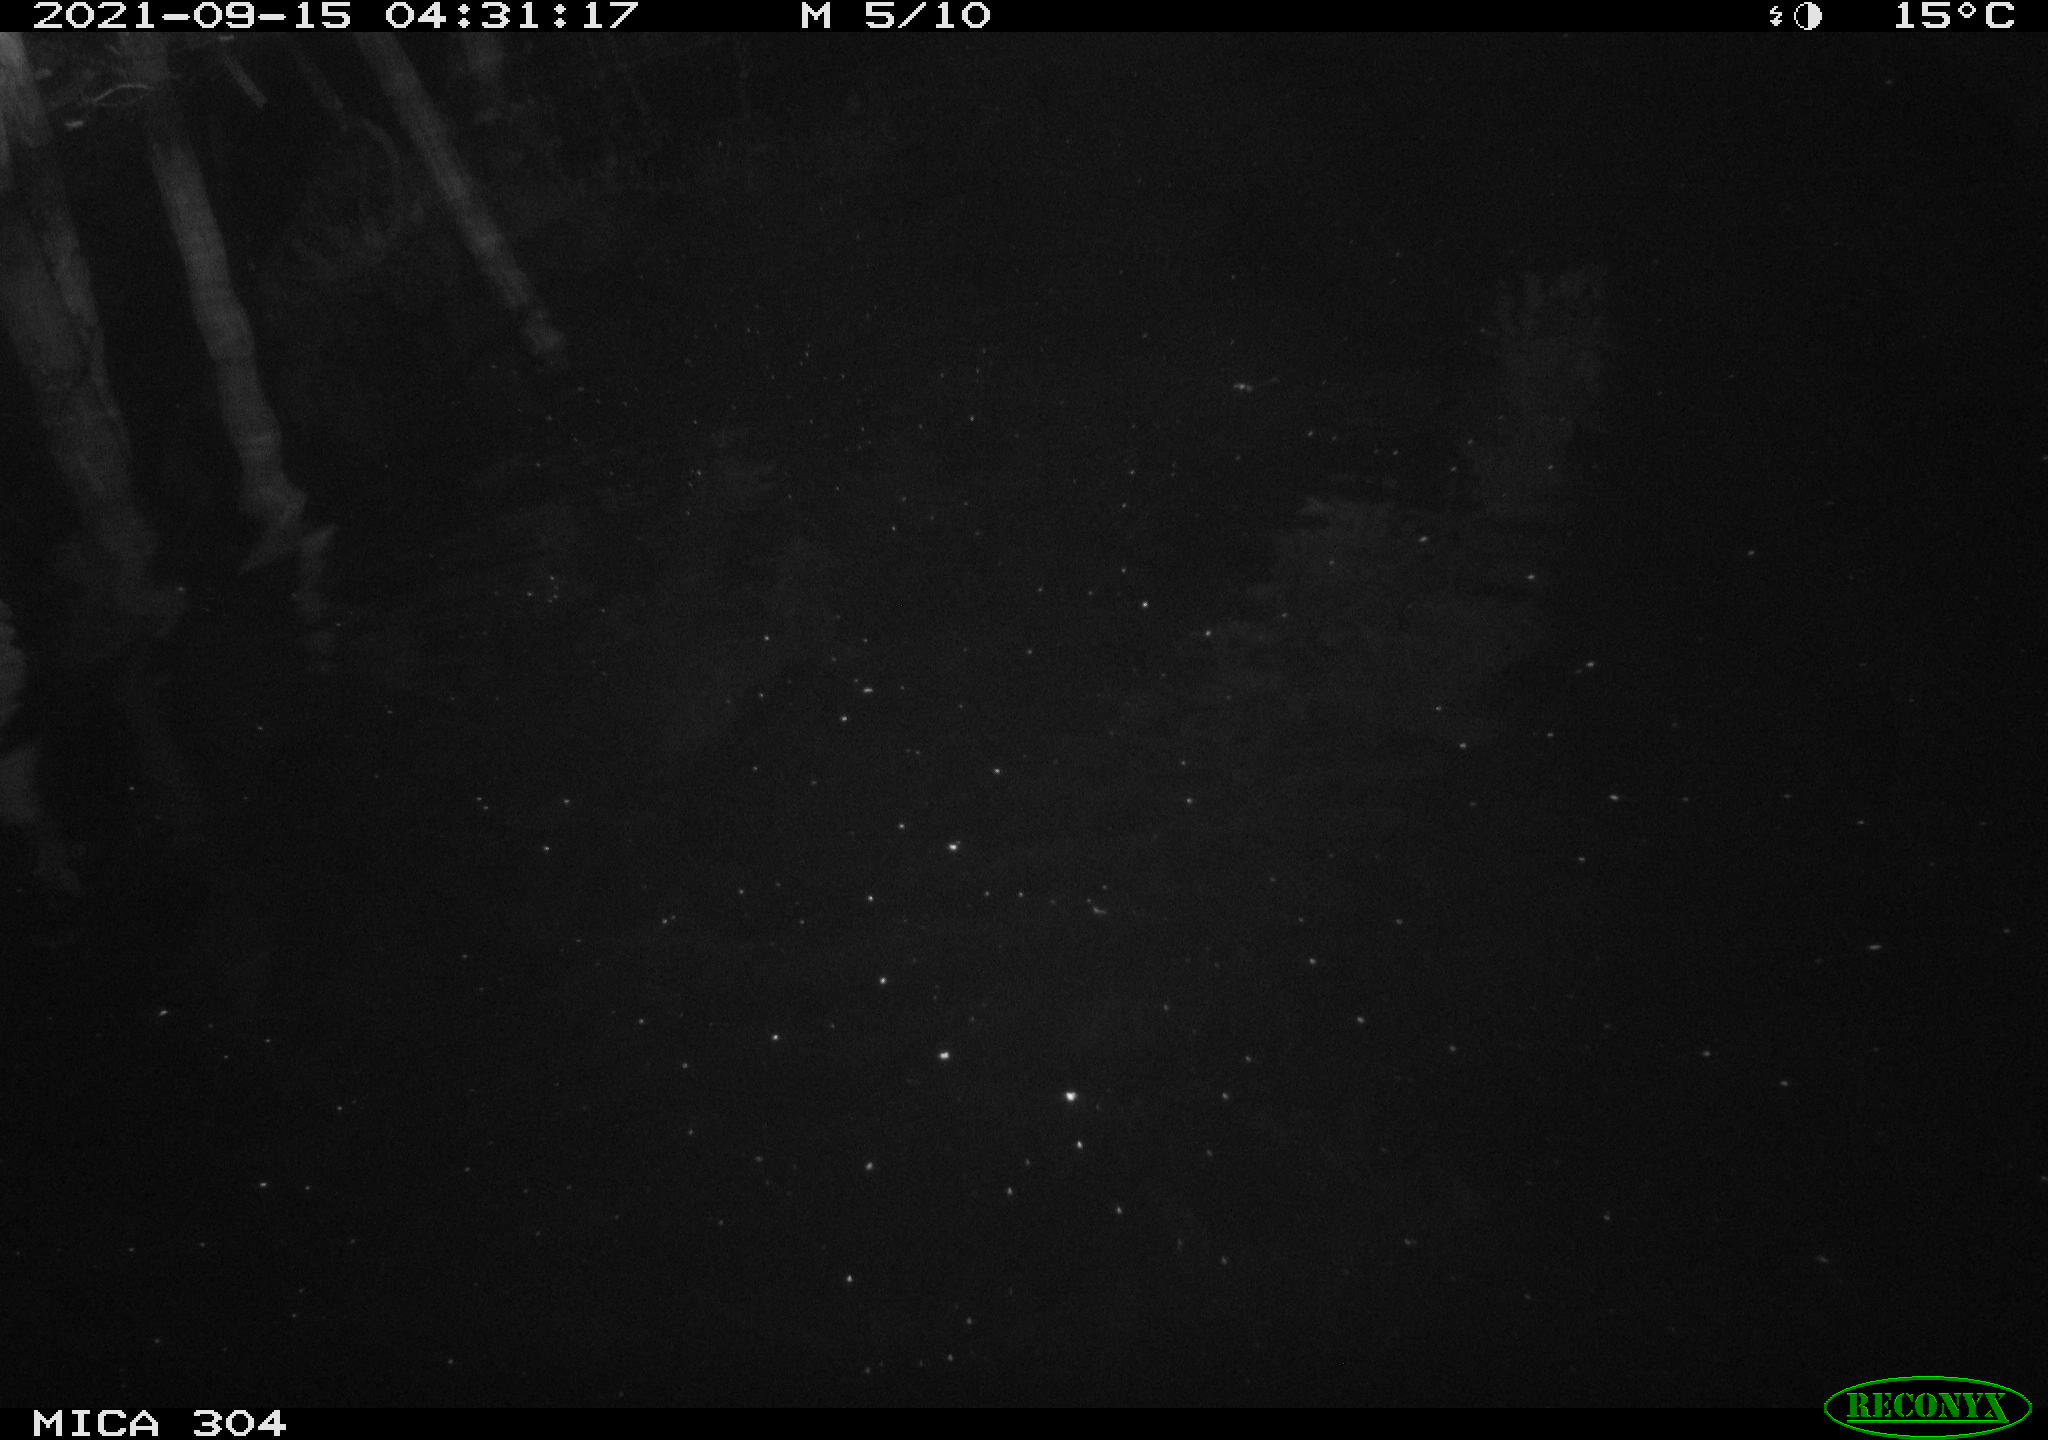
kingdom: Animalia
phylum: Chordata
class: Mammalia
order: Rodentia
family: Muridae
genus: Rattus
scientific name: Rattus norvegicus
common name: Brown rat
